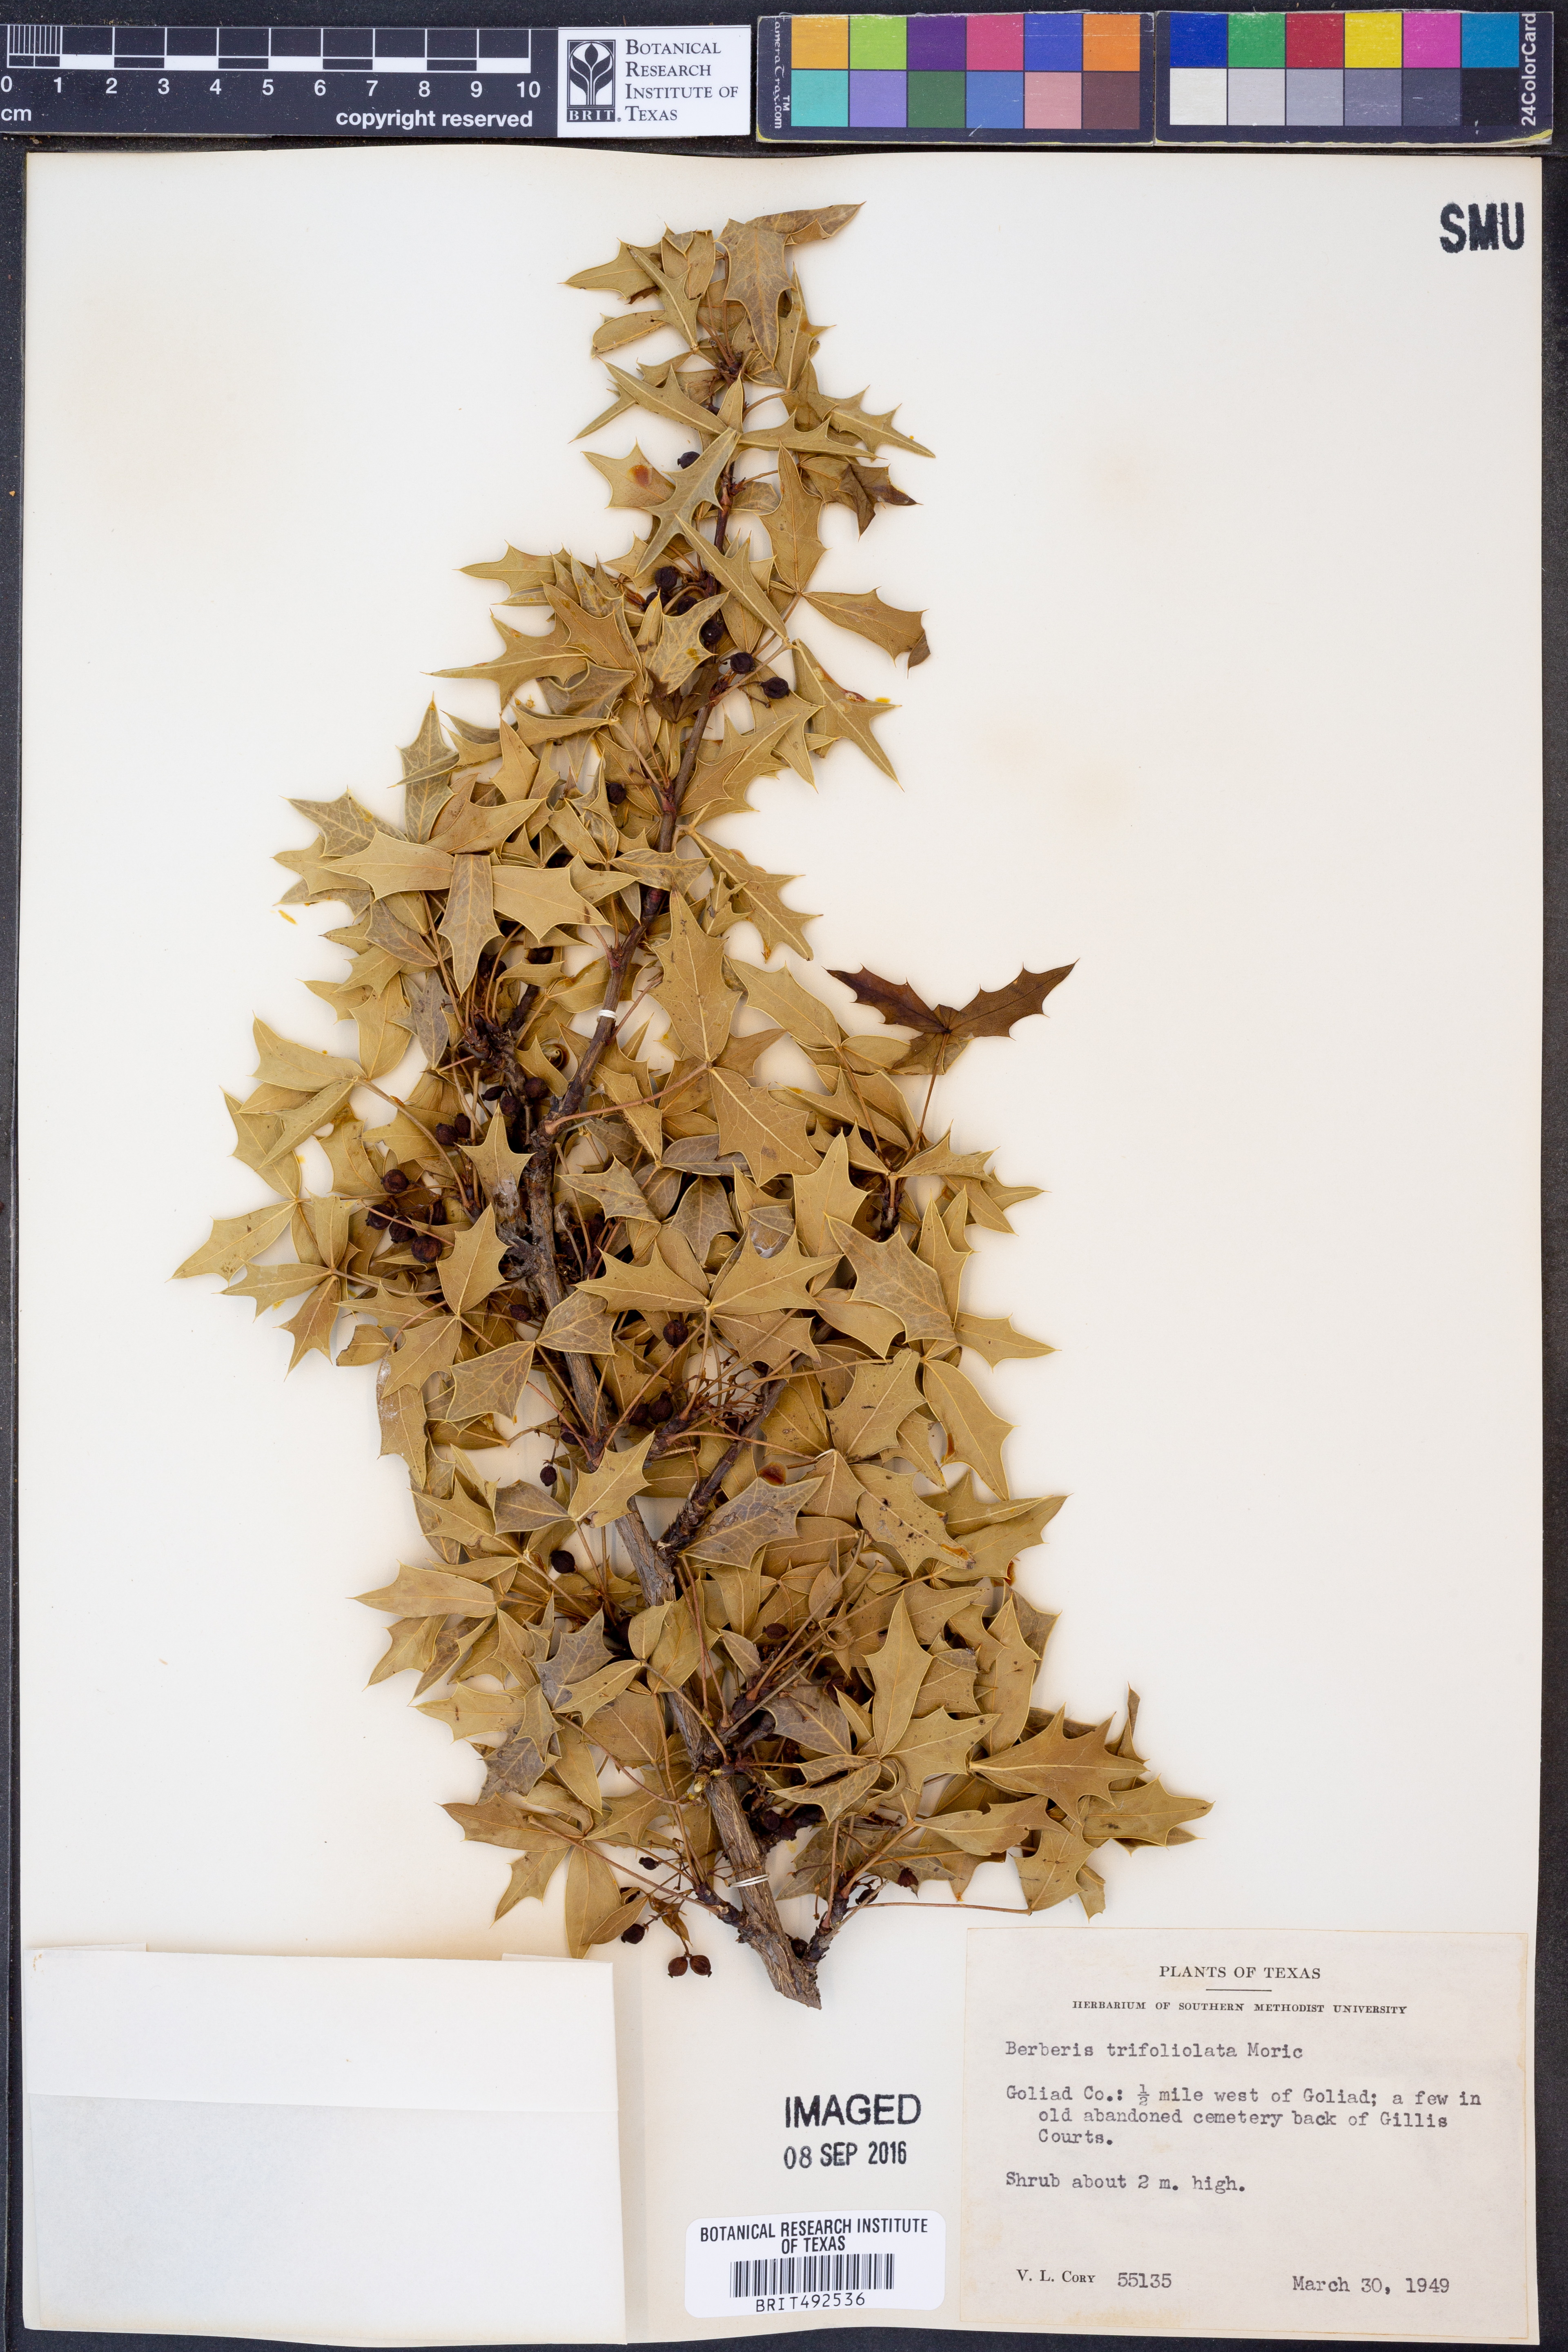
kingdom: Plantae
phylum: Tracheophyta
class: Magnoliopsida
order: Ranunculales
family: Berberidaceae
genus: Alloberberis
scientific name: Alloberberis trifoliolata
